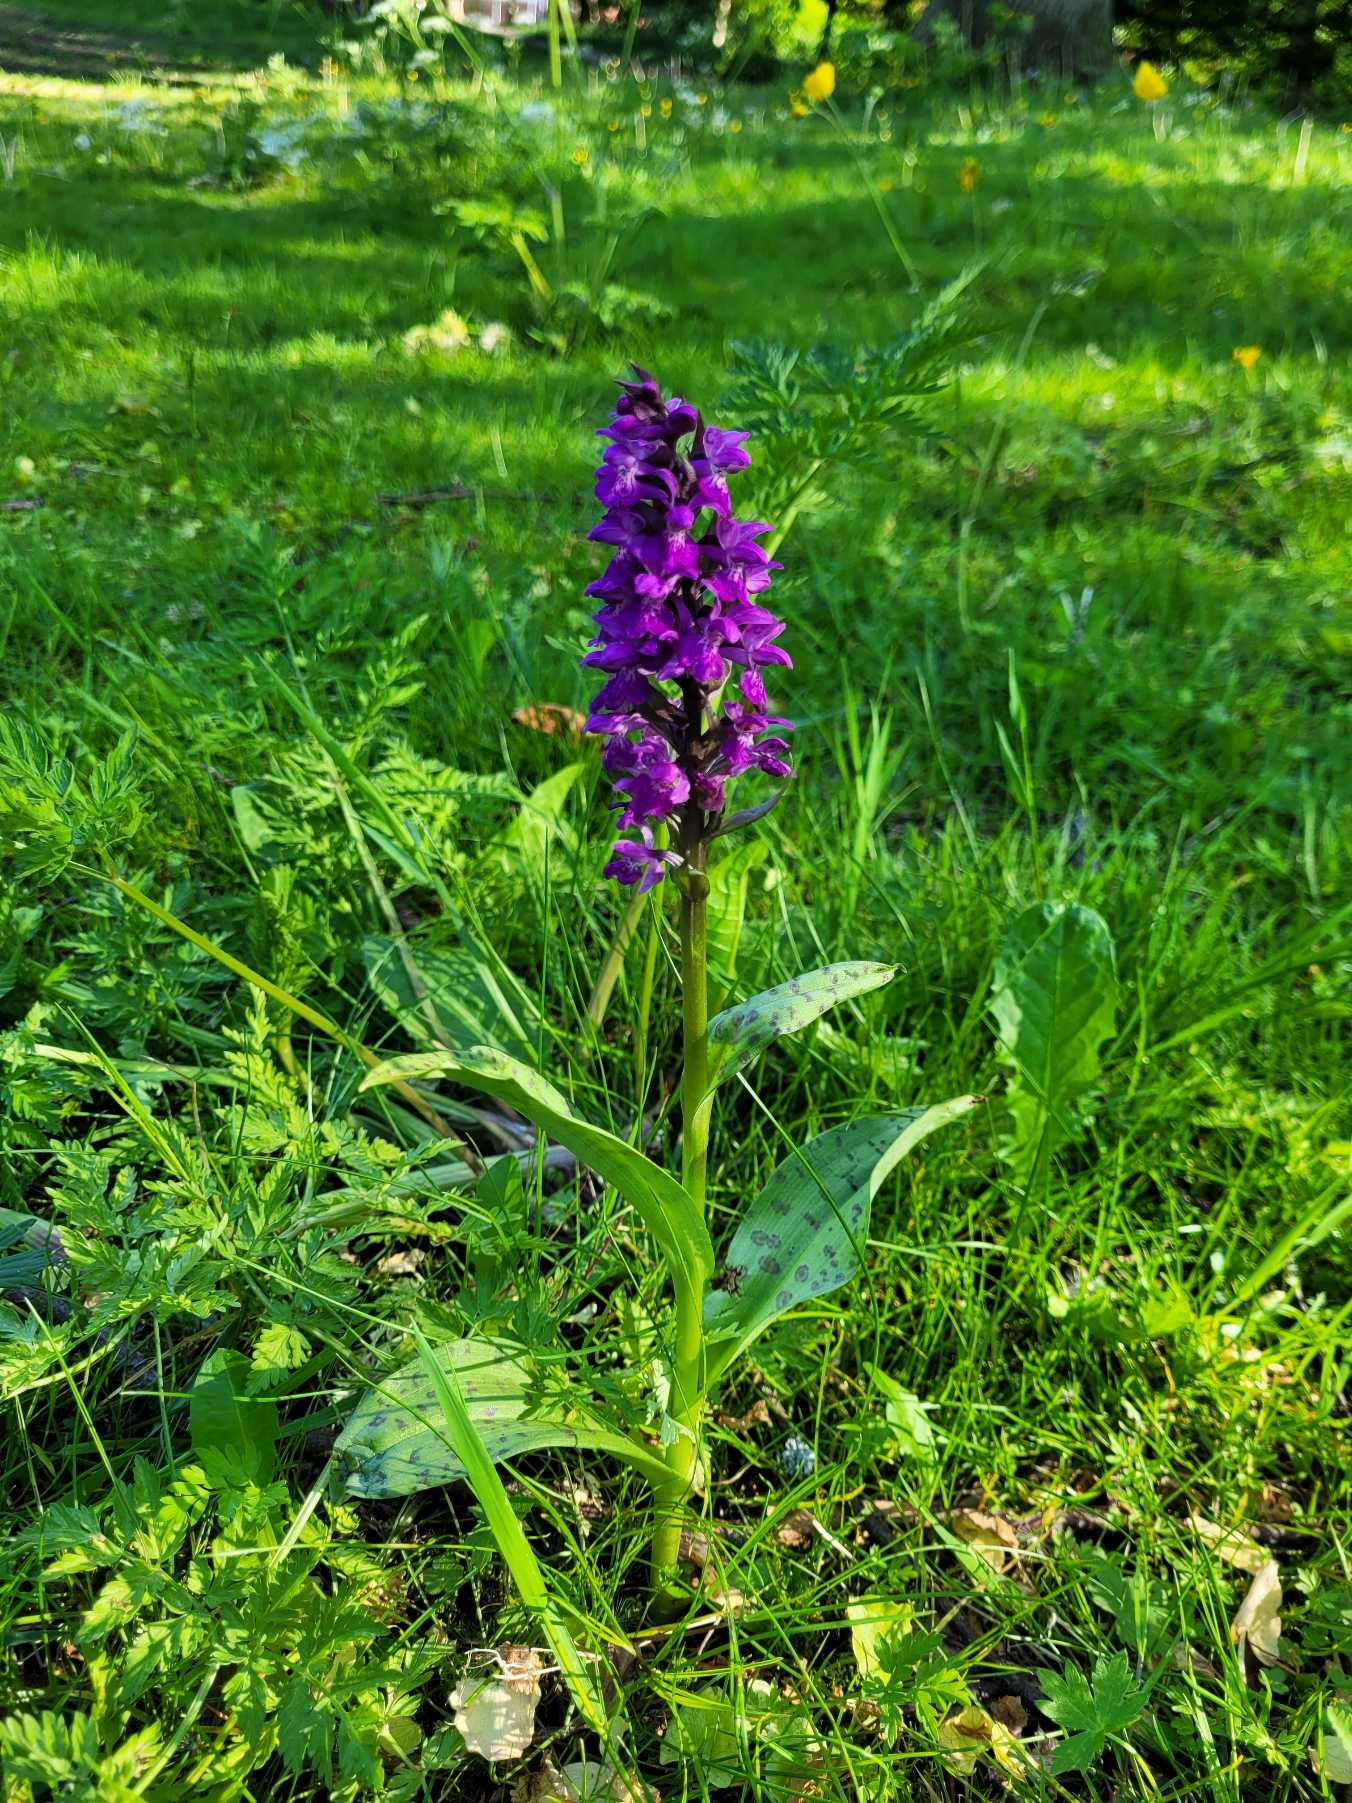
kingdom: Plantae
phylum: Tracheophyta
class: Liliopsida
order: Asparagales
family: Orchidaceae
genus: Dactylorhiza
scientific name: Dactylorhiza majalis
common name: Maj-gøgeurt
